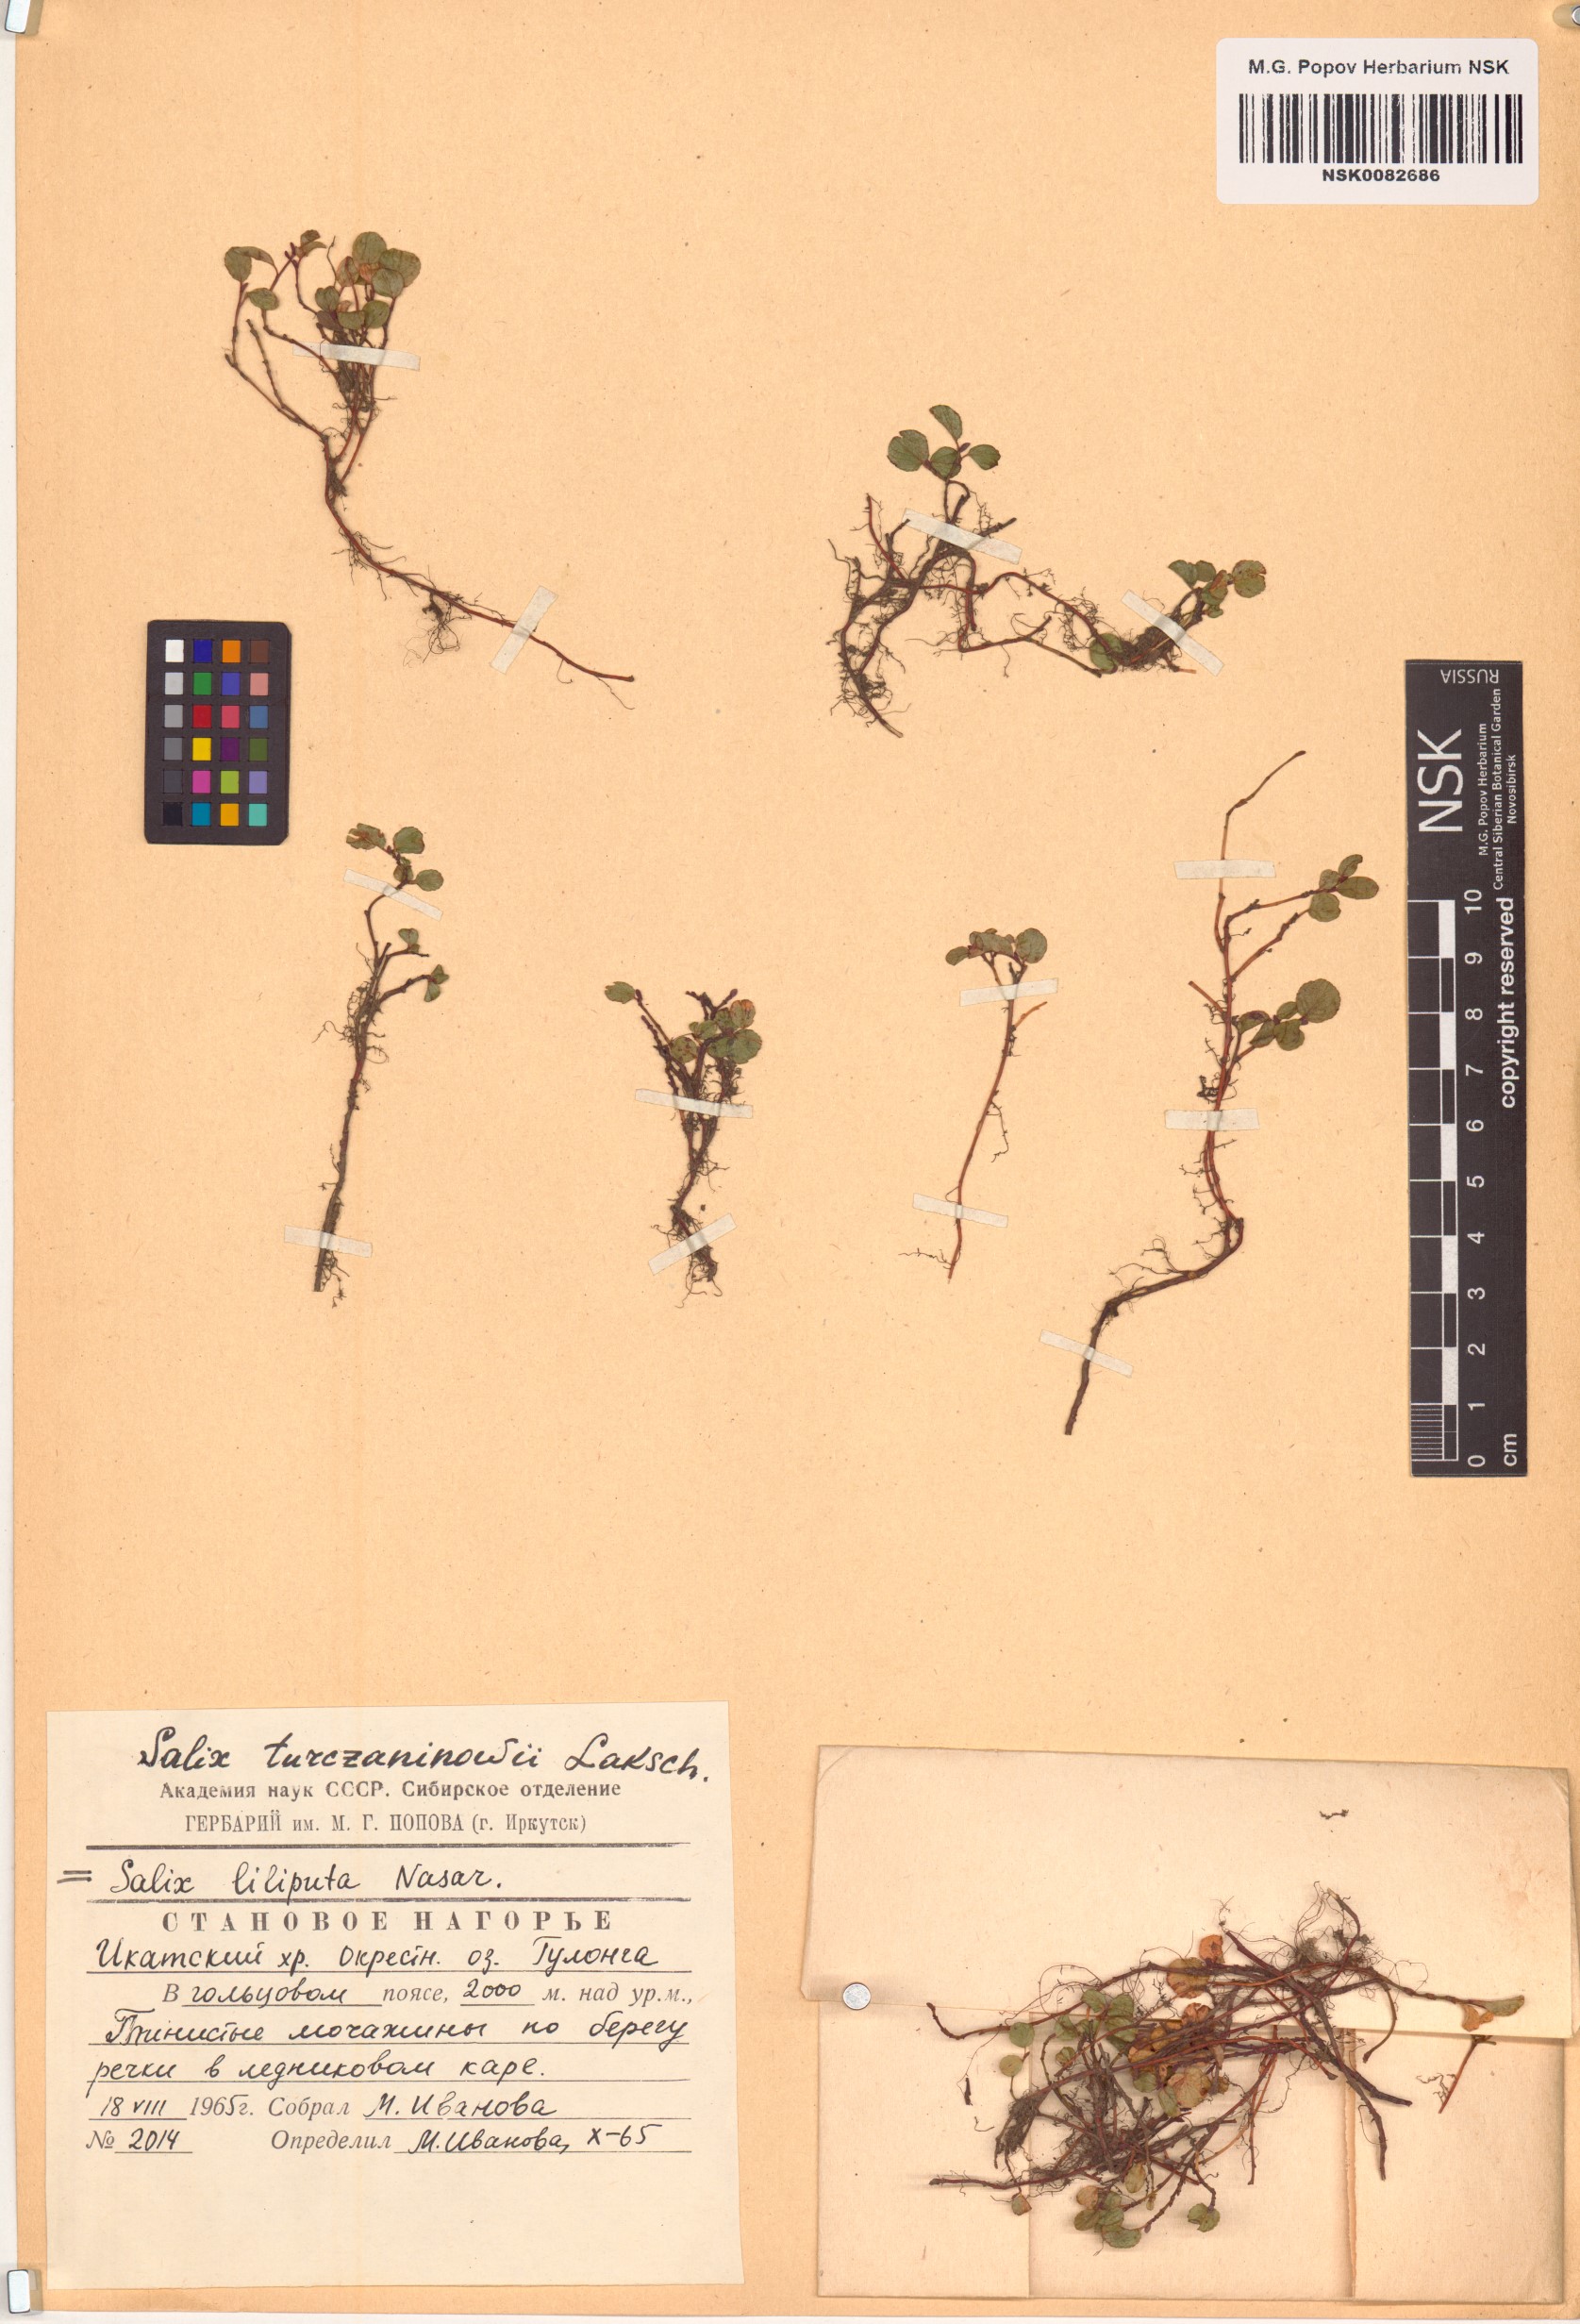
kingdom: Plantae
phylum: Tracheophyta
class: Magnoliopsida
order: Malpighiales
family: Salicaceae
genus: Salix
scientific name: Salix turczaninowii
